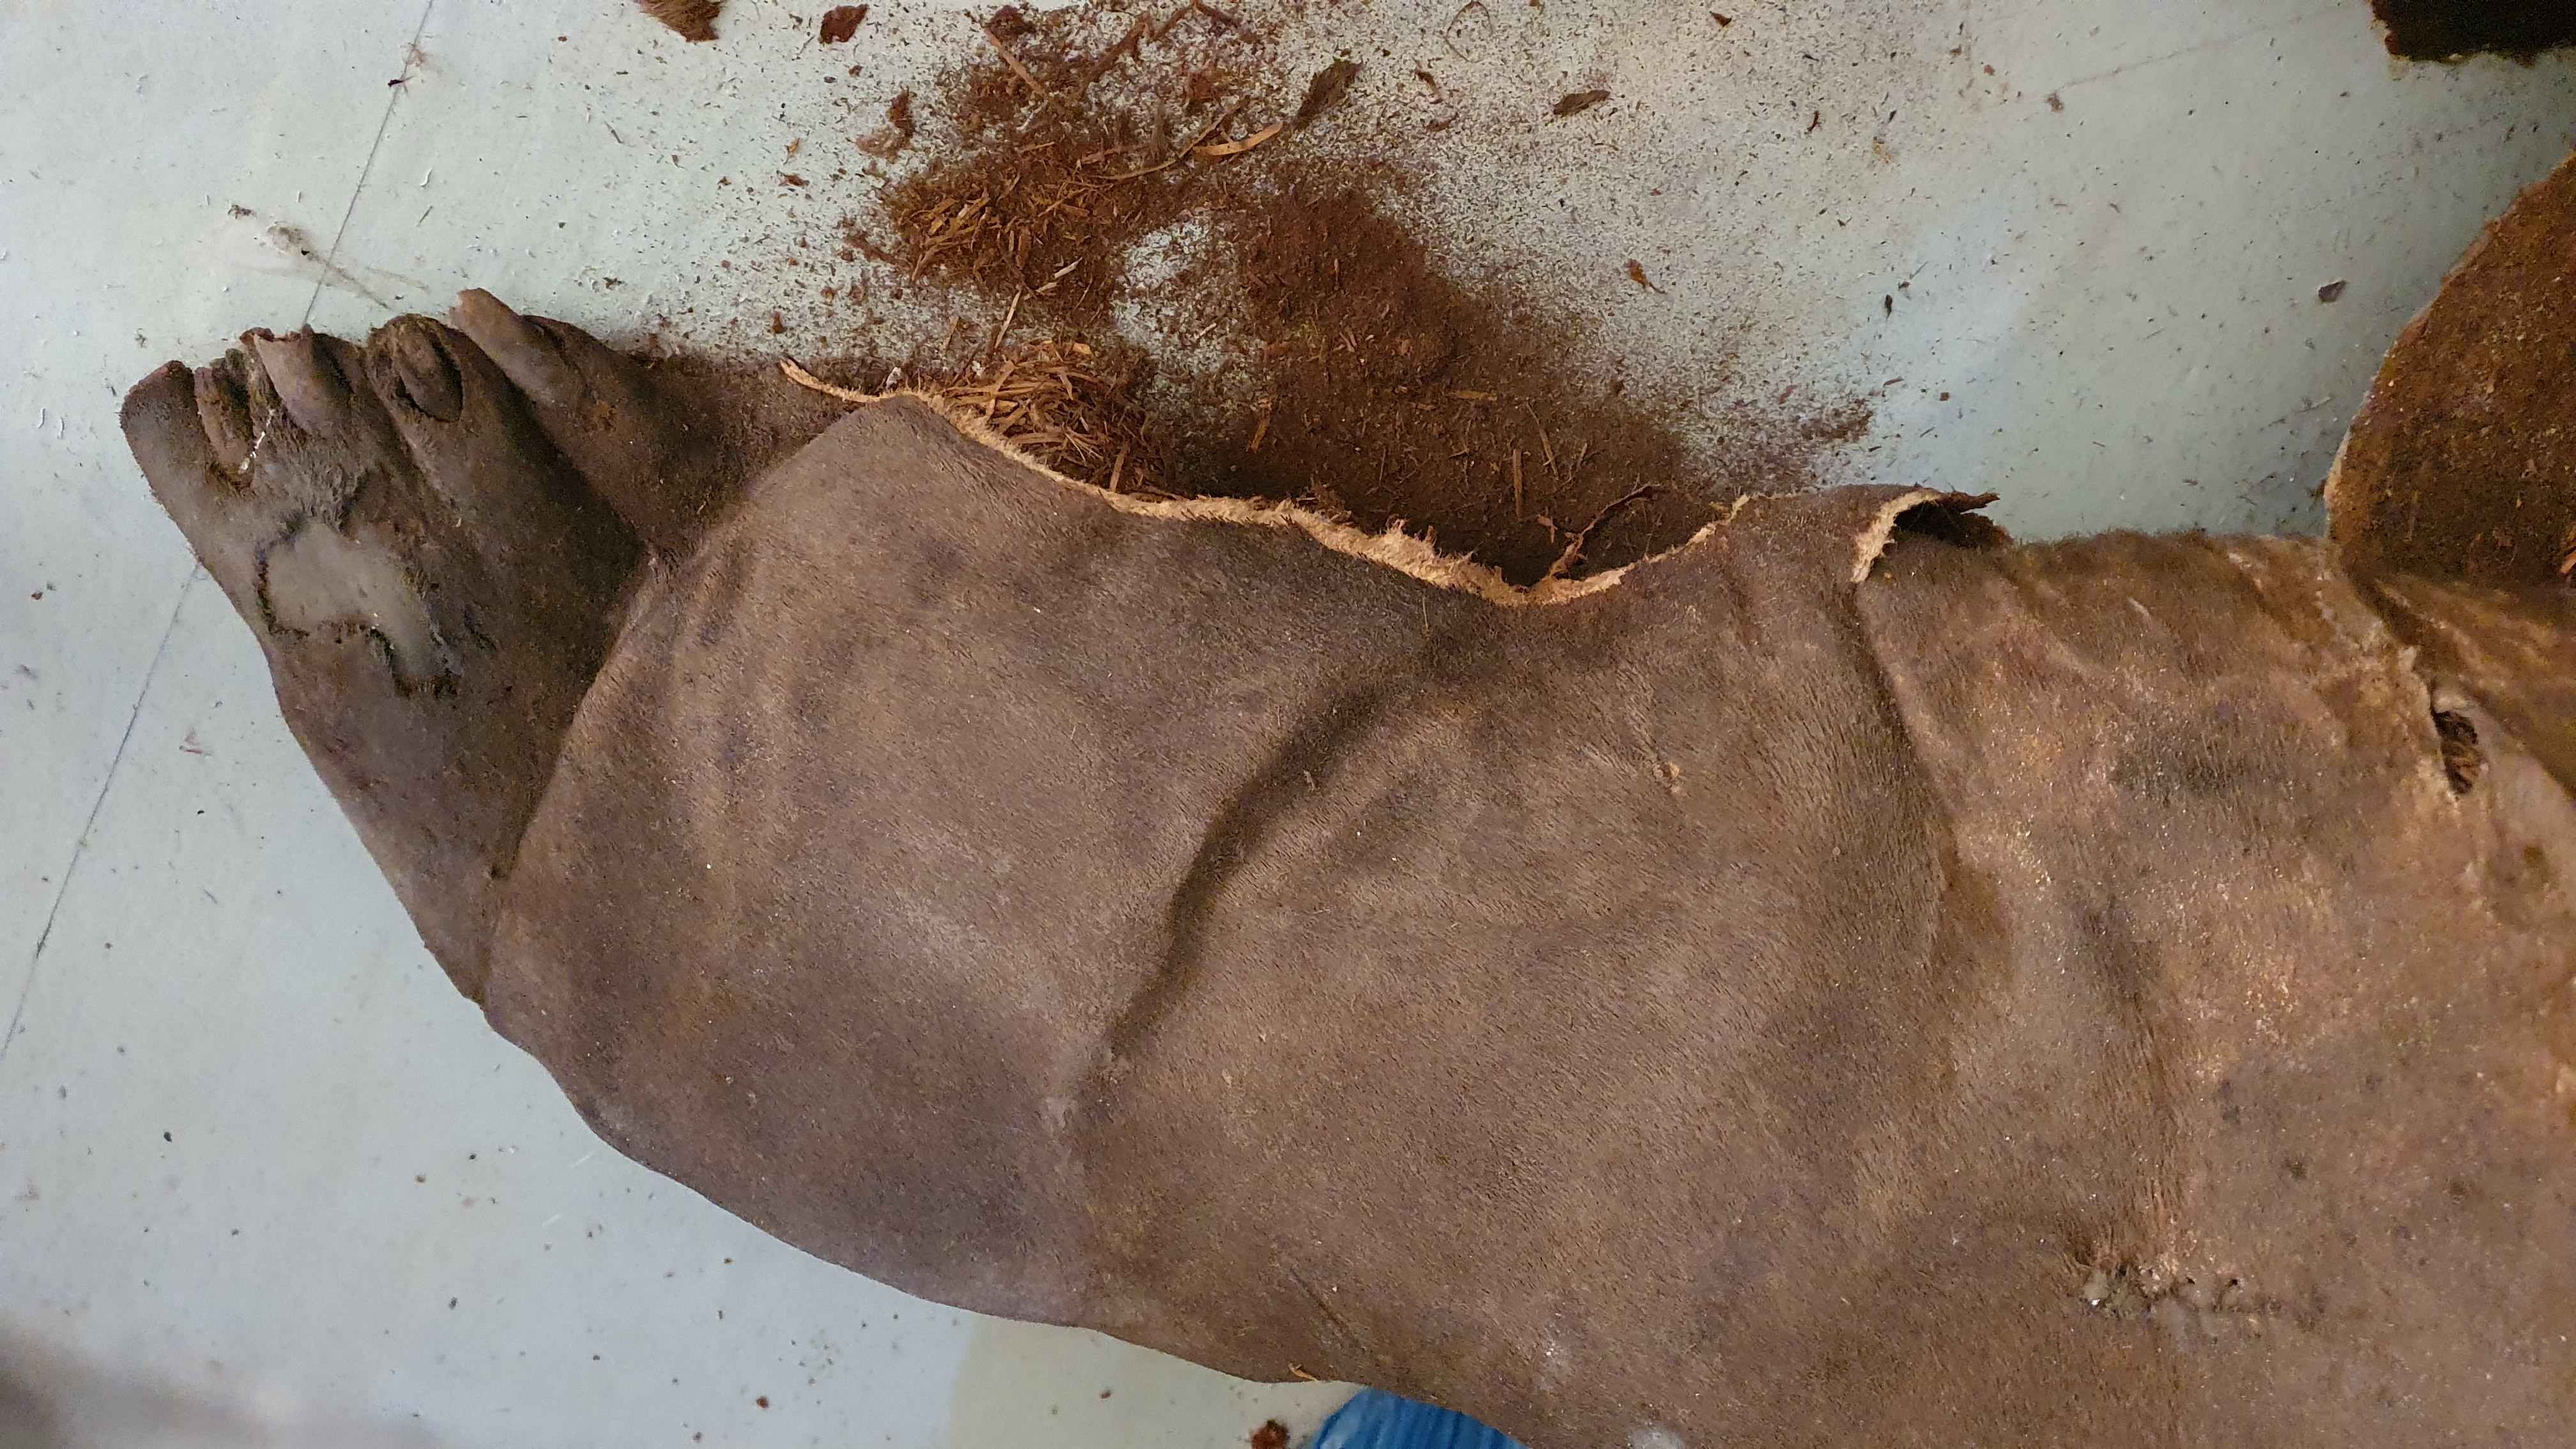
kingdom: Animalia
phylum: Chordata
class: Mammalia
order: Carnivora
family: Phocidae
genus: Mirounga
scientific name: Mirounga leonina
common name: Southern elephant seal
